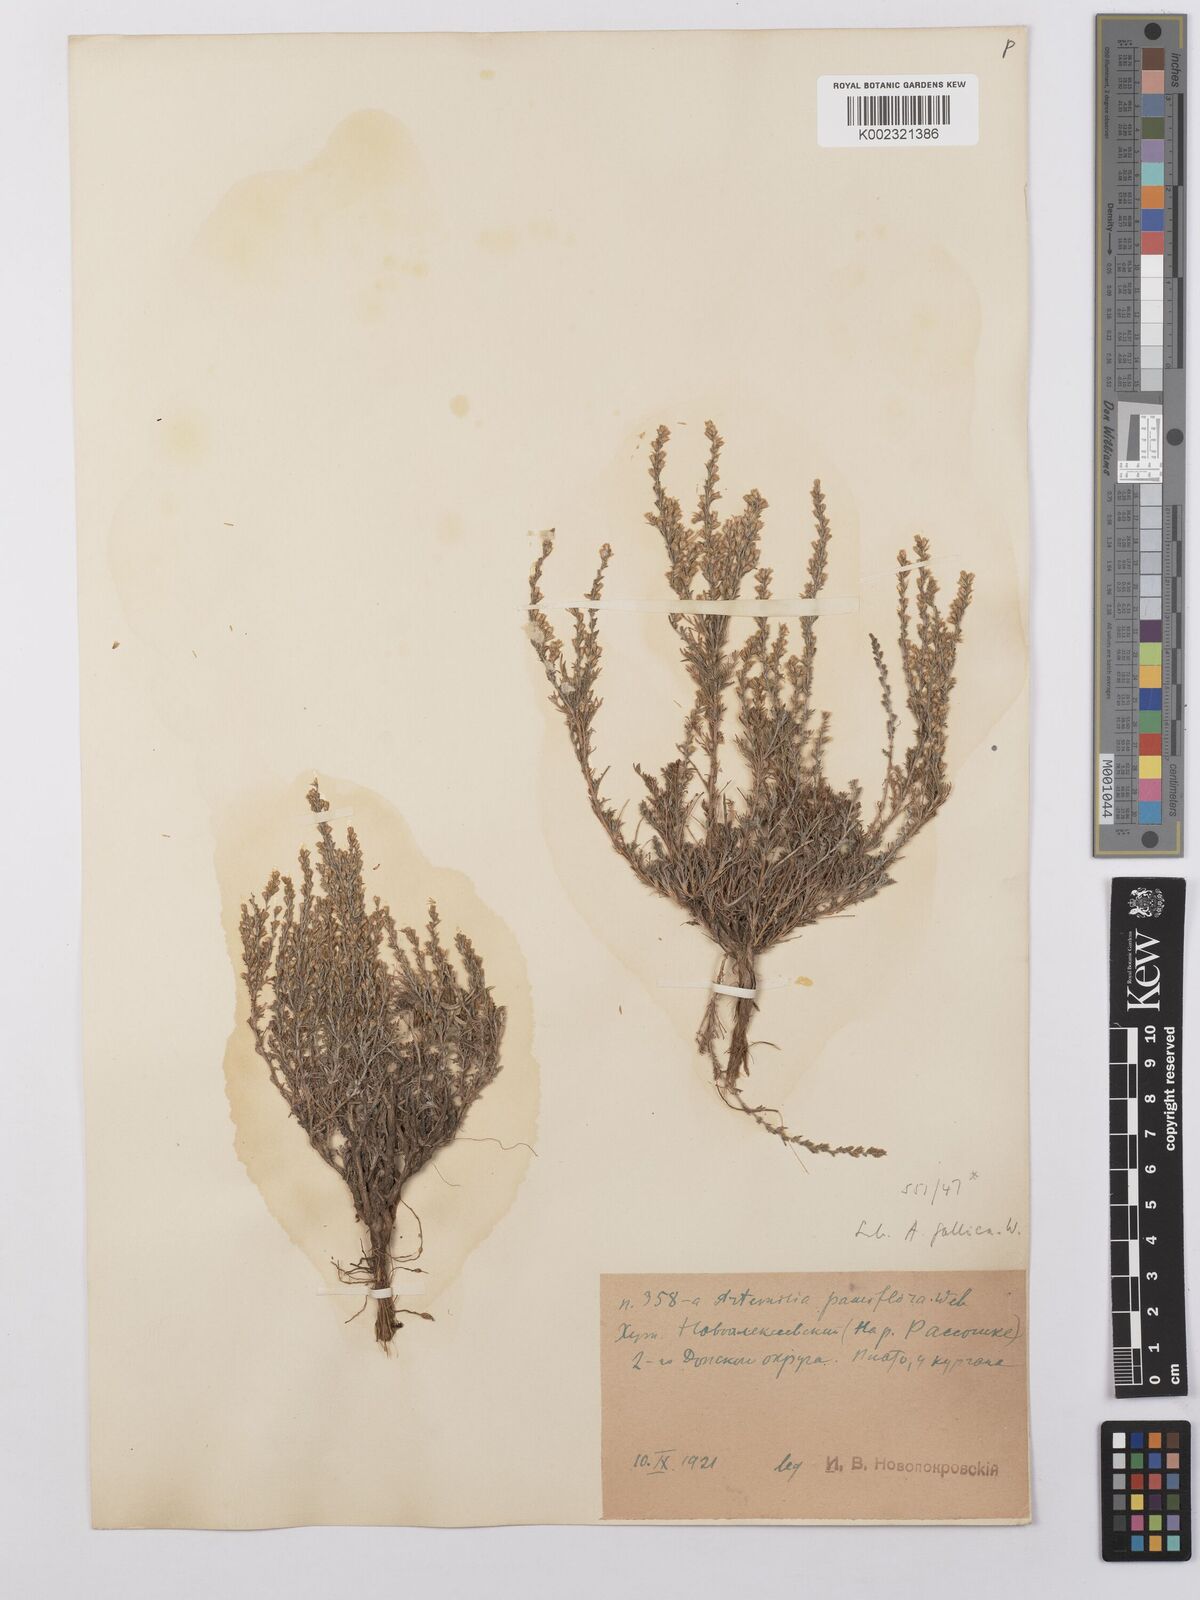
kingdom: Plantae
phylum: Tracheophyta
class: Magnoliopsida
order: Asterales
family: Asteraceae
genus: Artemisia
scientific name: Artemisia pauciflora
